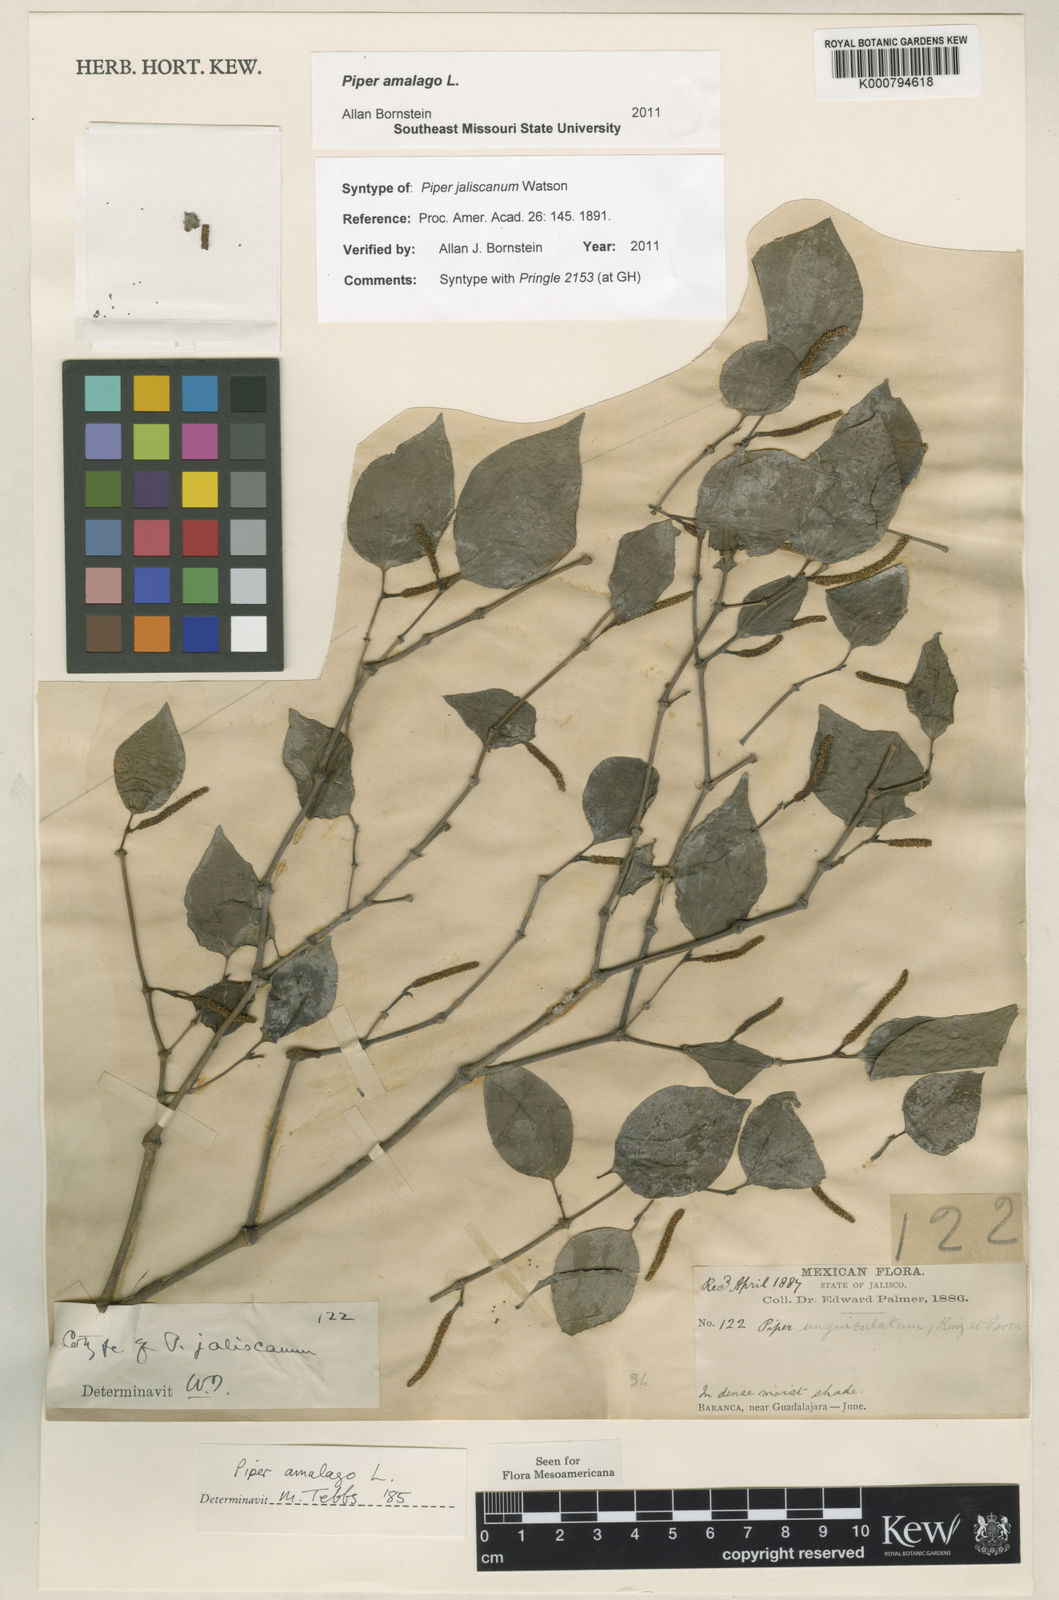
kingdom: Plantae
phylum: Tracheophyta
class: Magnoliopsida
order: Piperales
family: Piperaceae
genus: Piper
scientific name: Piper amalago
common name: Pepper-elder
